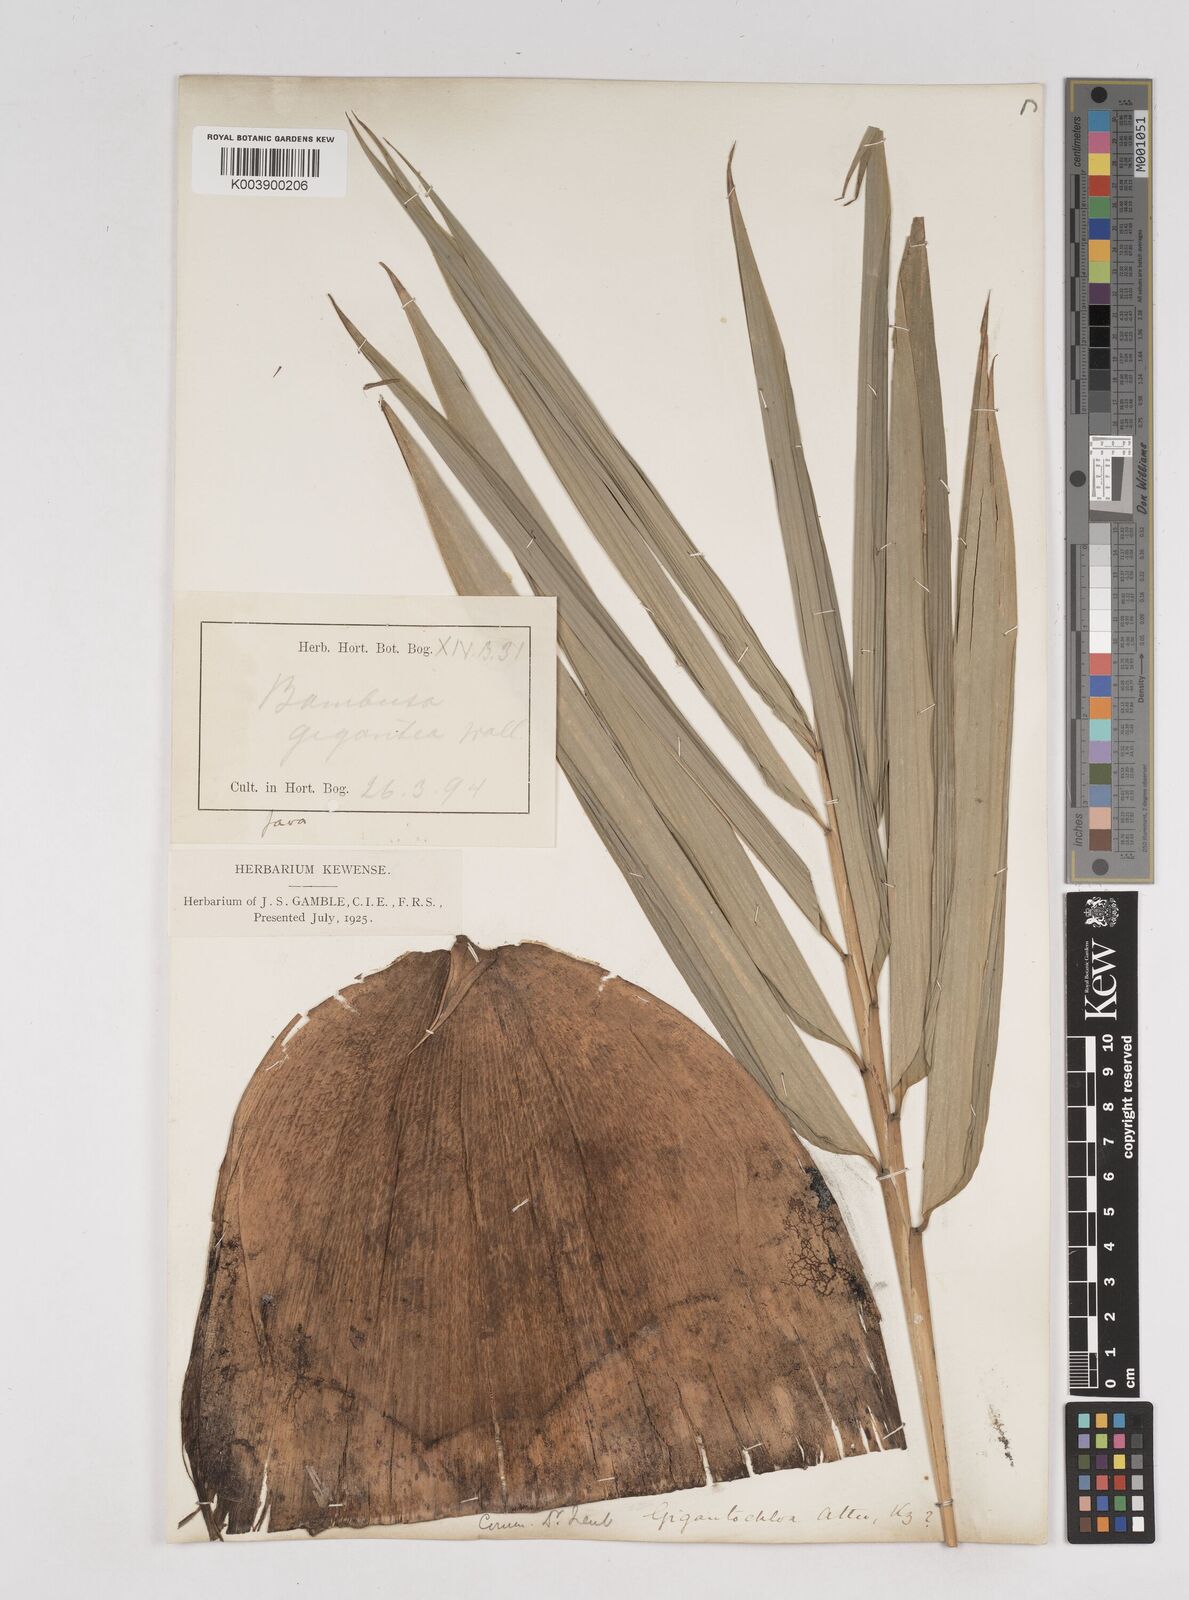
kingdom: Plantae
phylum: Tracheophyta
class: Liliopsida
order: Poales
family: Poaceae
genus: Gigantochloa
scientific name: Gigantochloa atter
